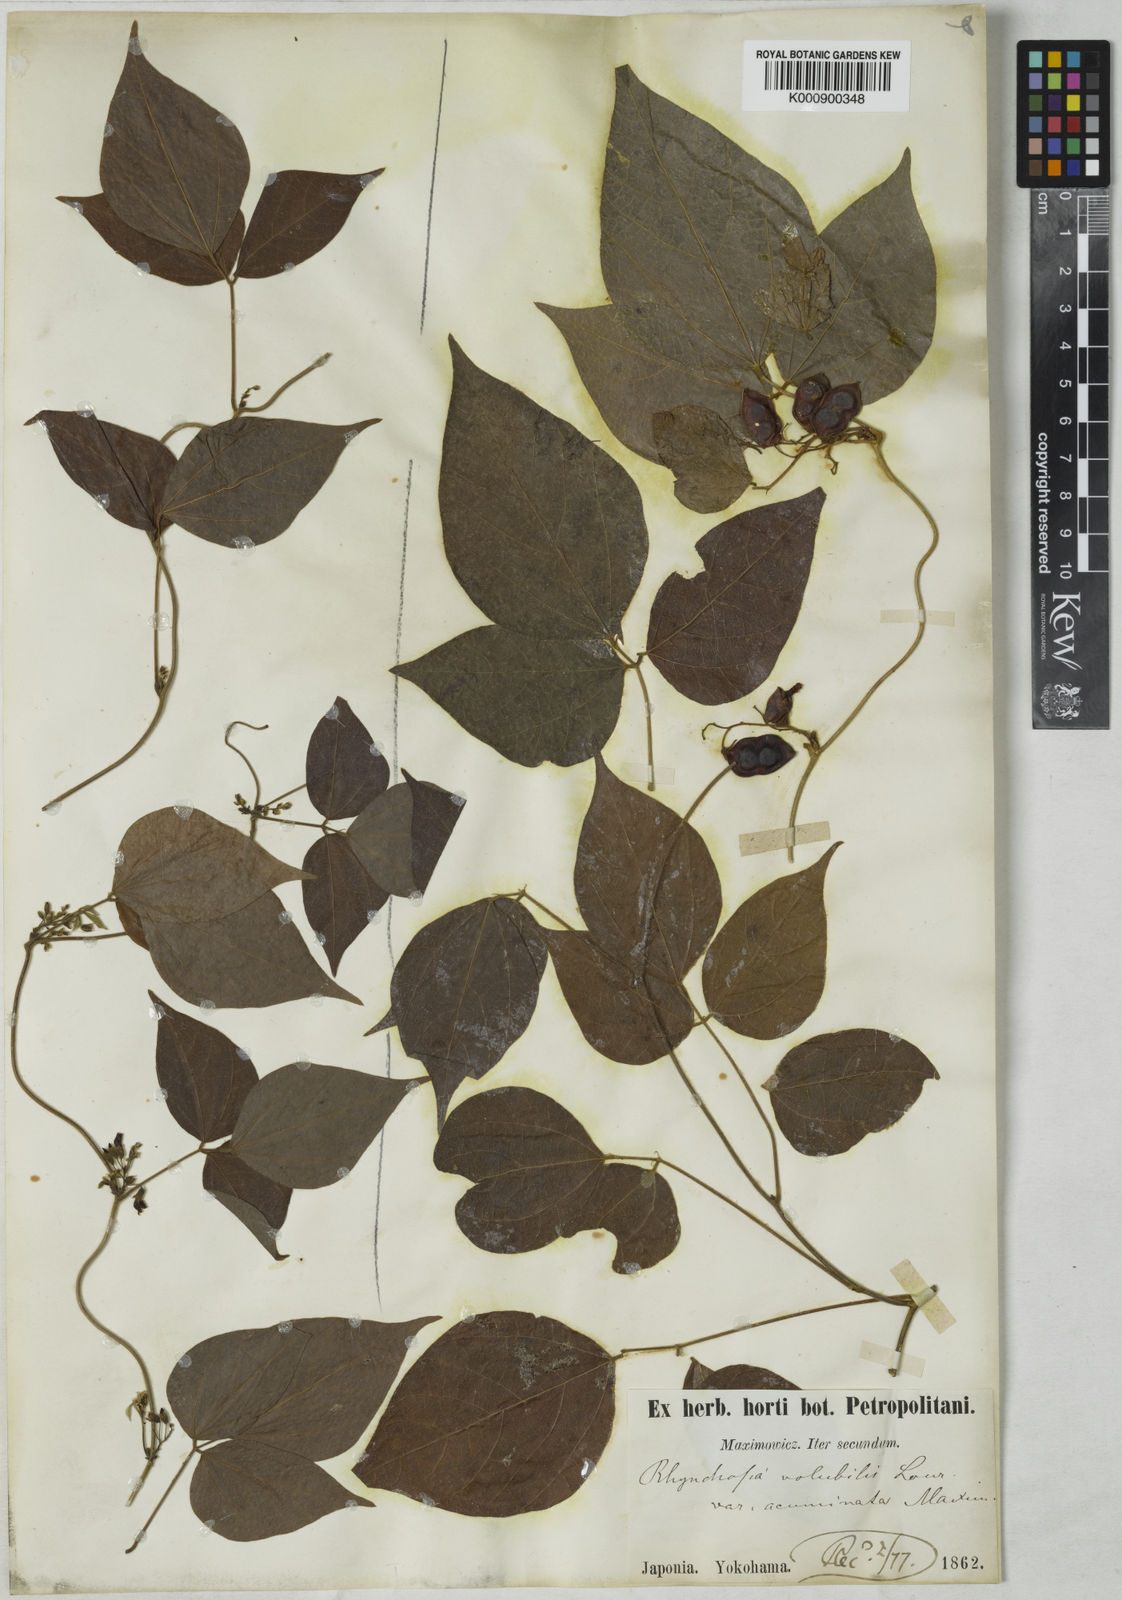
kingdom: Plantae
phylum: Tracheophyta
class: Magnoliopsida
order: Fabales
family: Fabaceae
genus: Rhynchosia
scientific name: Rhynchosia volubilis
